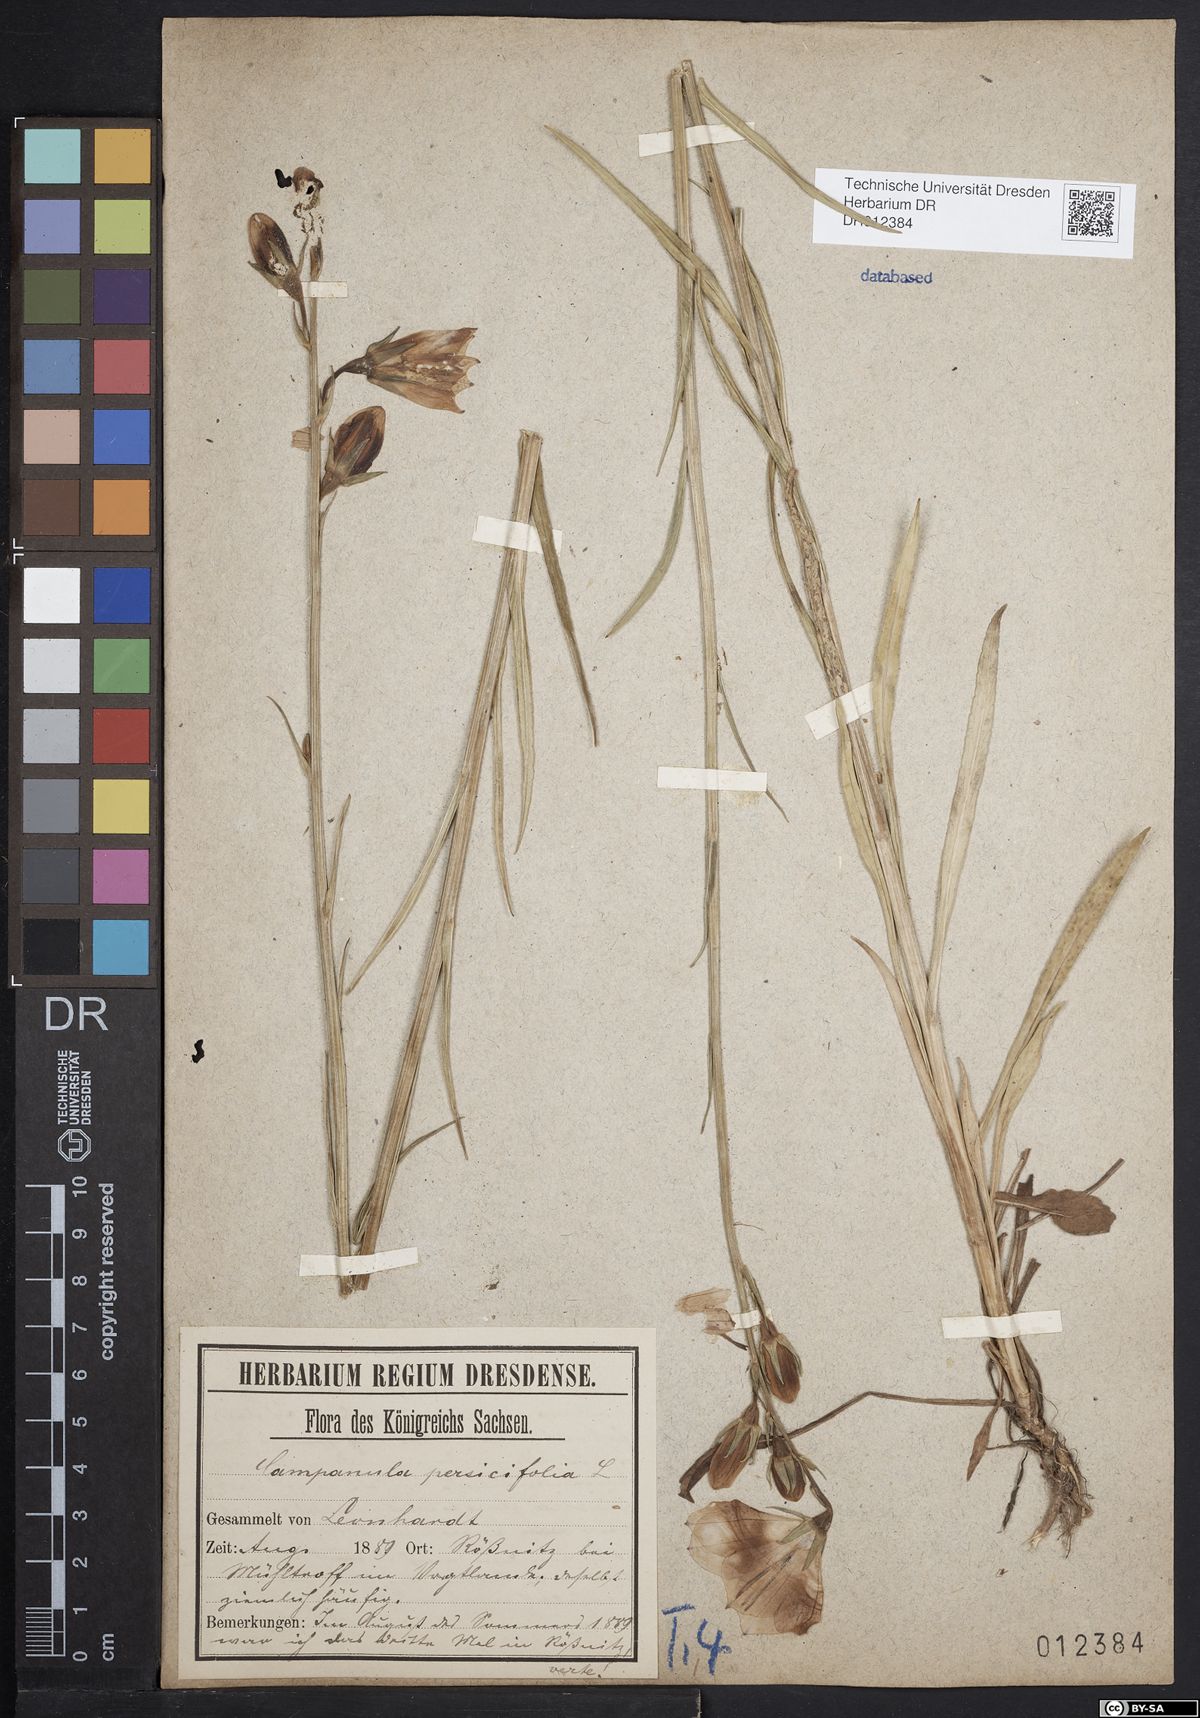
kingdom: Plantae
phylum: Tracheophyta
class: Magnoliopsida
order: Asterales
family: Campanulaceae
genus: Campanula
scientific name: Campanula persicifolia
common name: Peach-leaved bellflower
